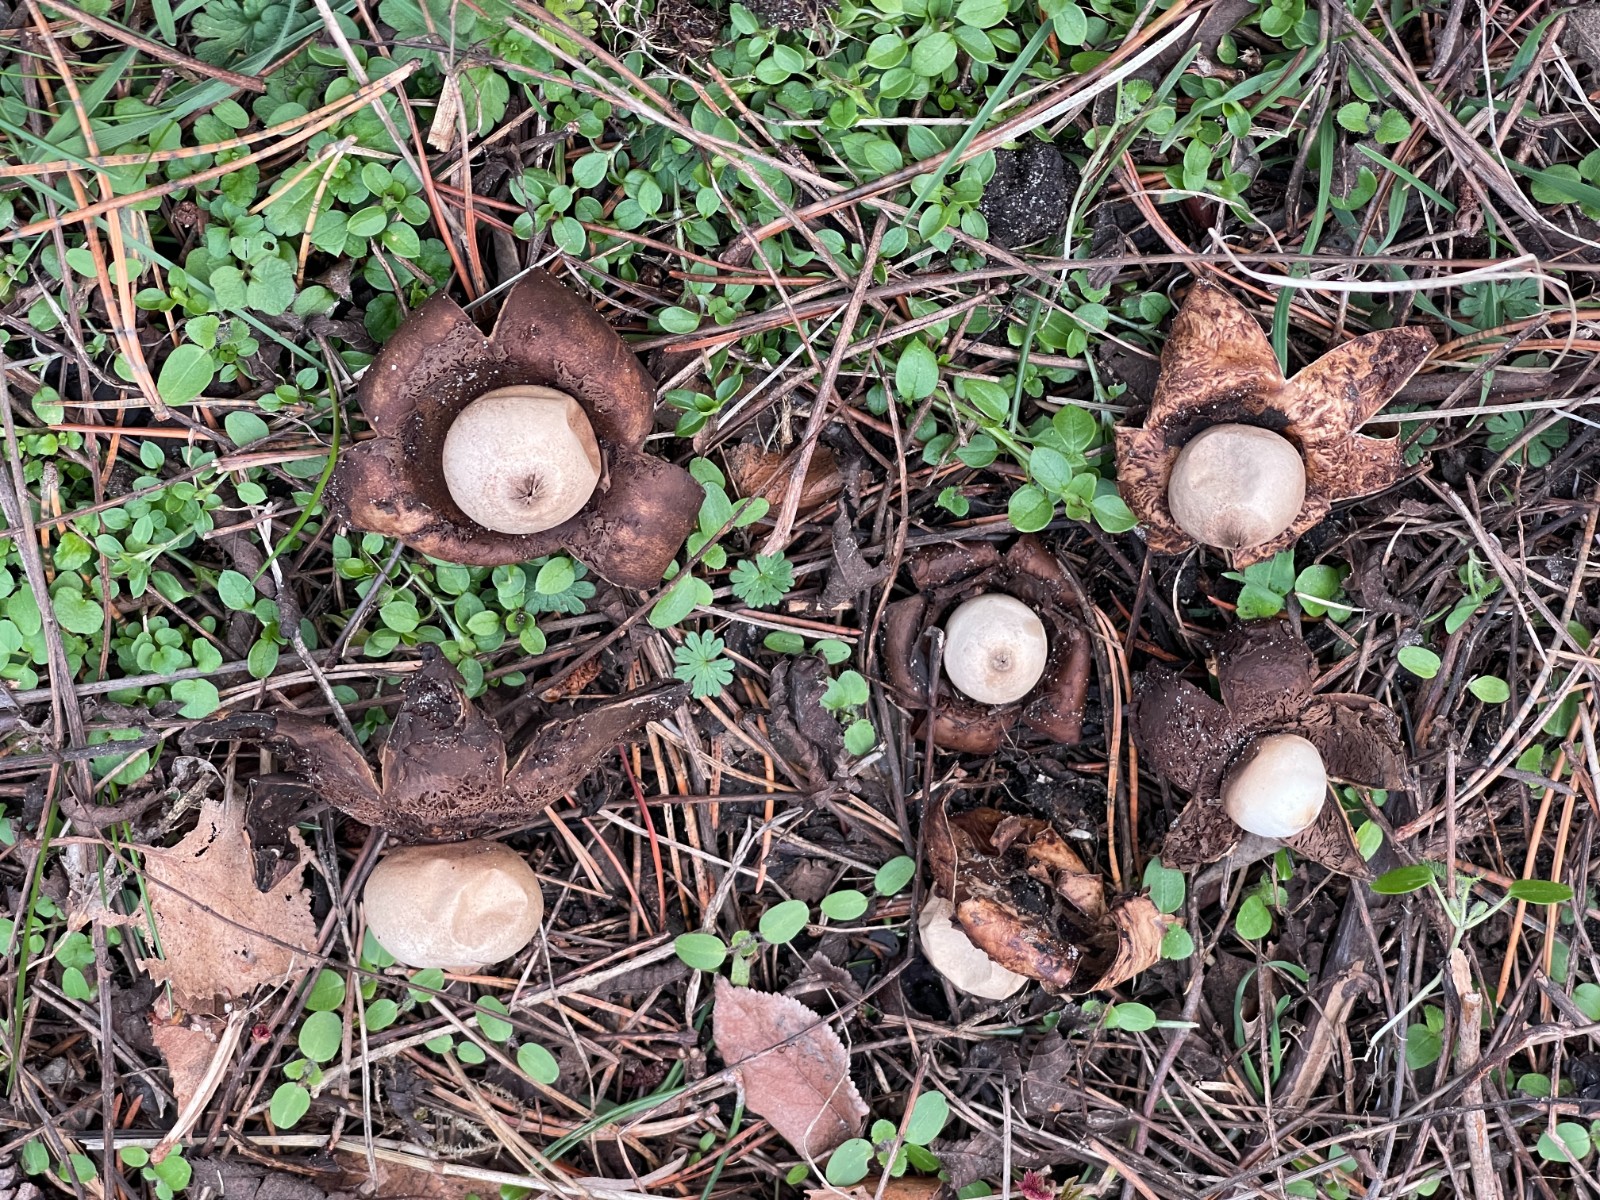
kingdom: Fungi
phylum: Basidiomycota
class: Agaricomycetes
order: Geastrales
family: Geastraceae
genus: Geastrum
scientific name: Geastrum michelianum
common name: kødet stjernebold
